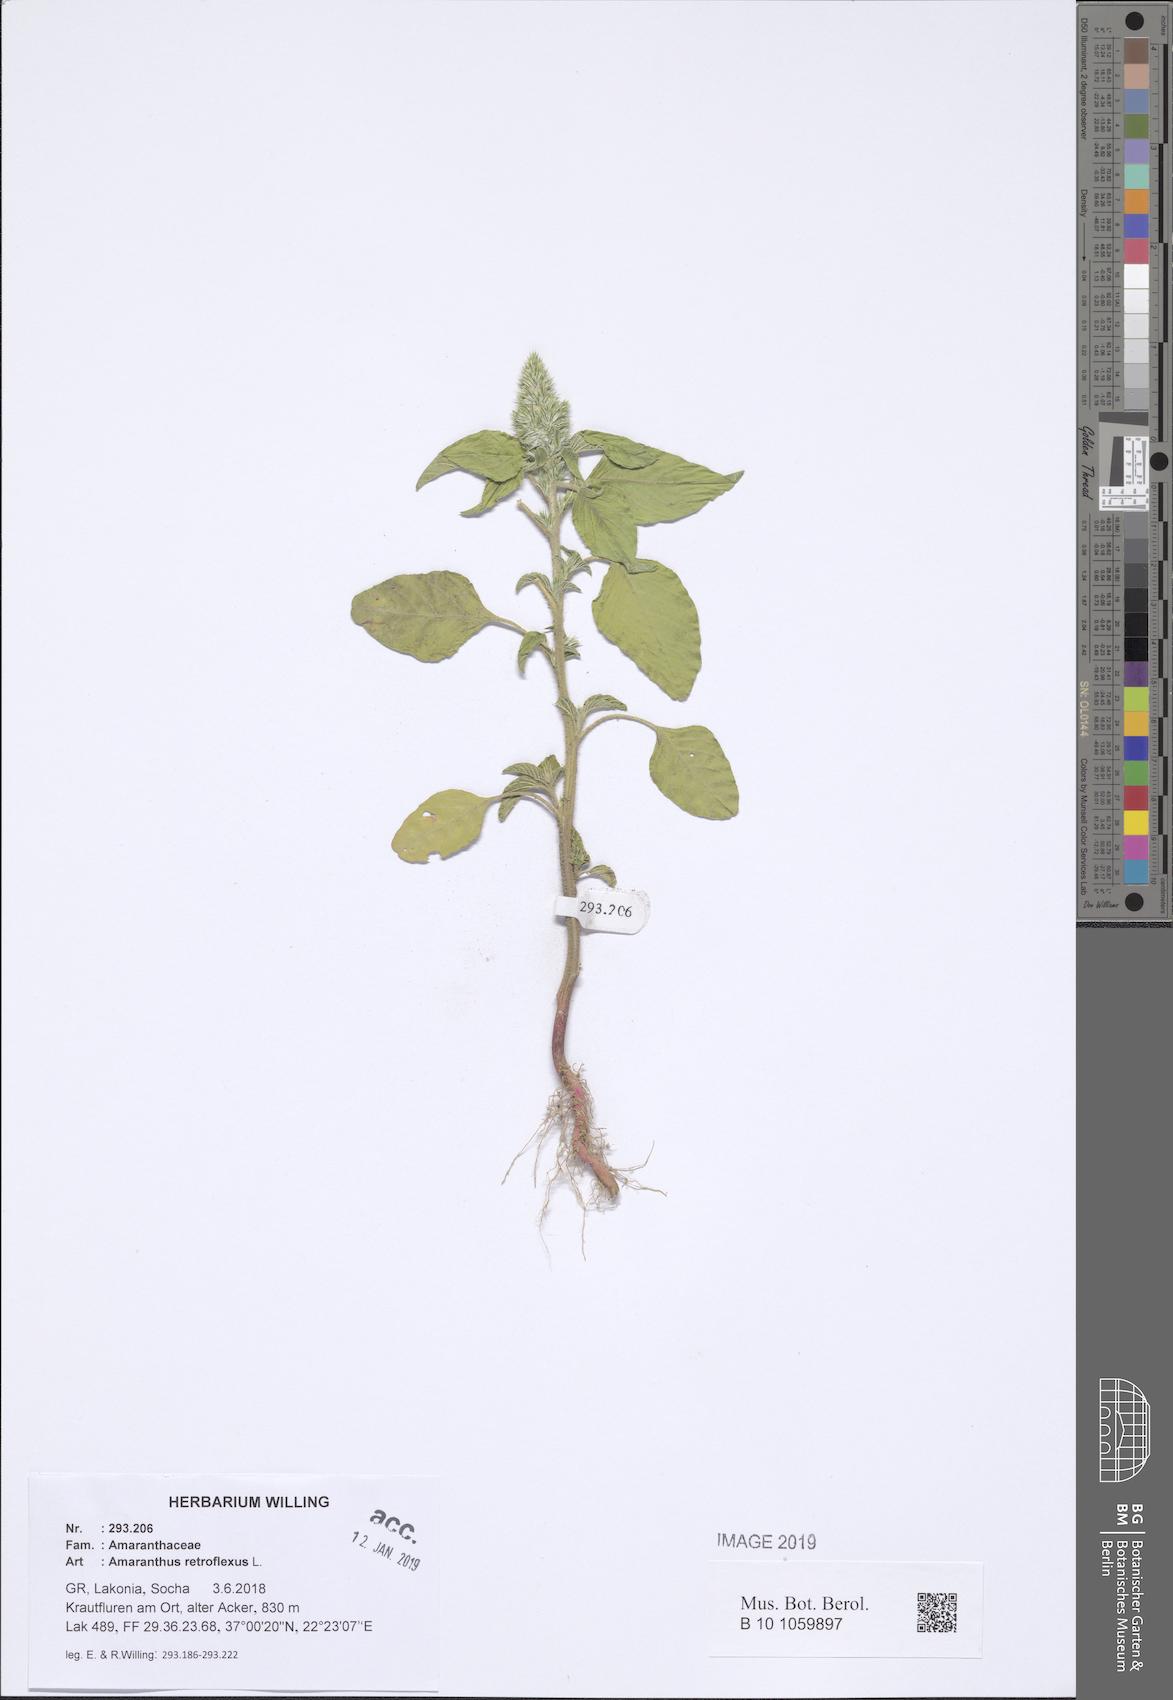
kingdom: Plantae
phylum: Tracheophyta
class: Magnoliopsida
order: Caryophyllales
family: Amaranthaceae
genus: Amaranthus
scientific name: Amaranthus retroflexus
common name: Redroot amaranth
